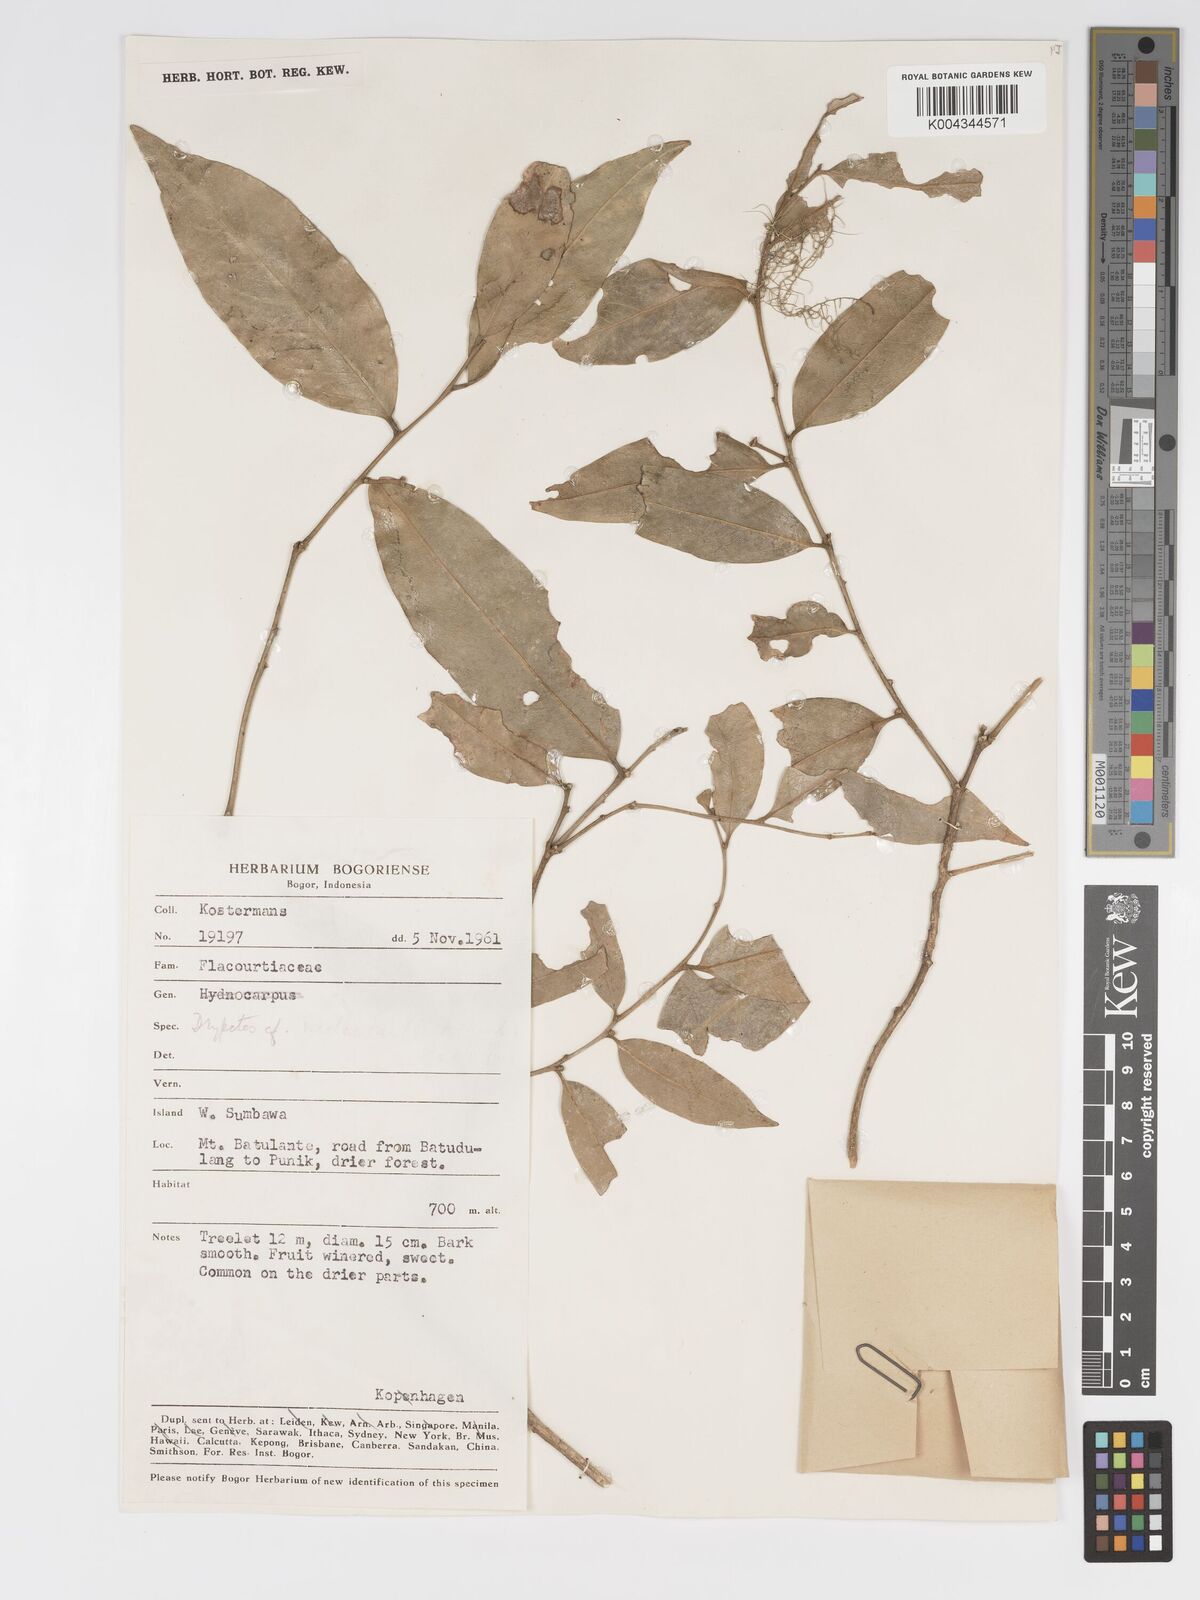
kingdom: Plantae
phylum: Tracheophyta
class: Magnoliopsida
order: Malpighiales
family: Putranjivaceae
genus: Drypetes
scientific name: Drypetes neglecta
